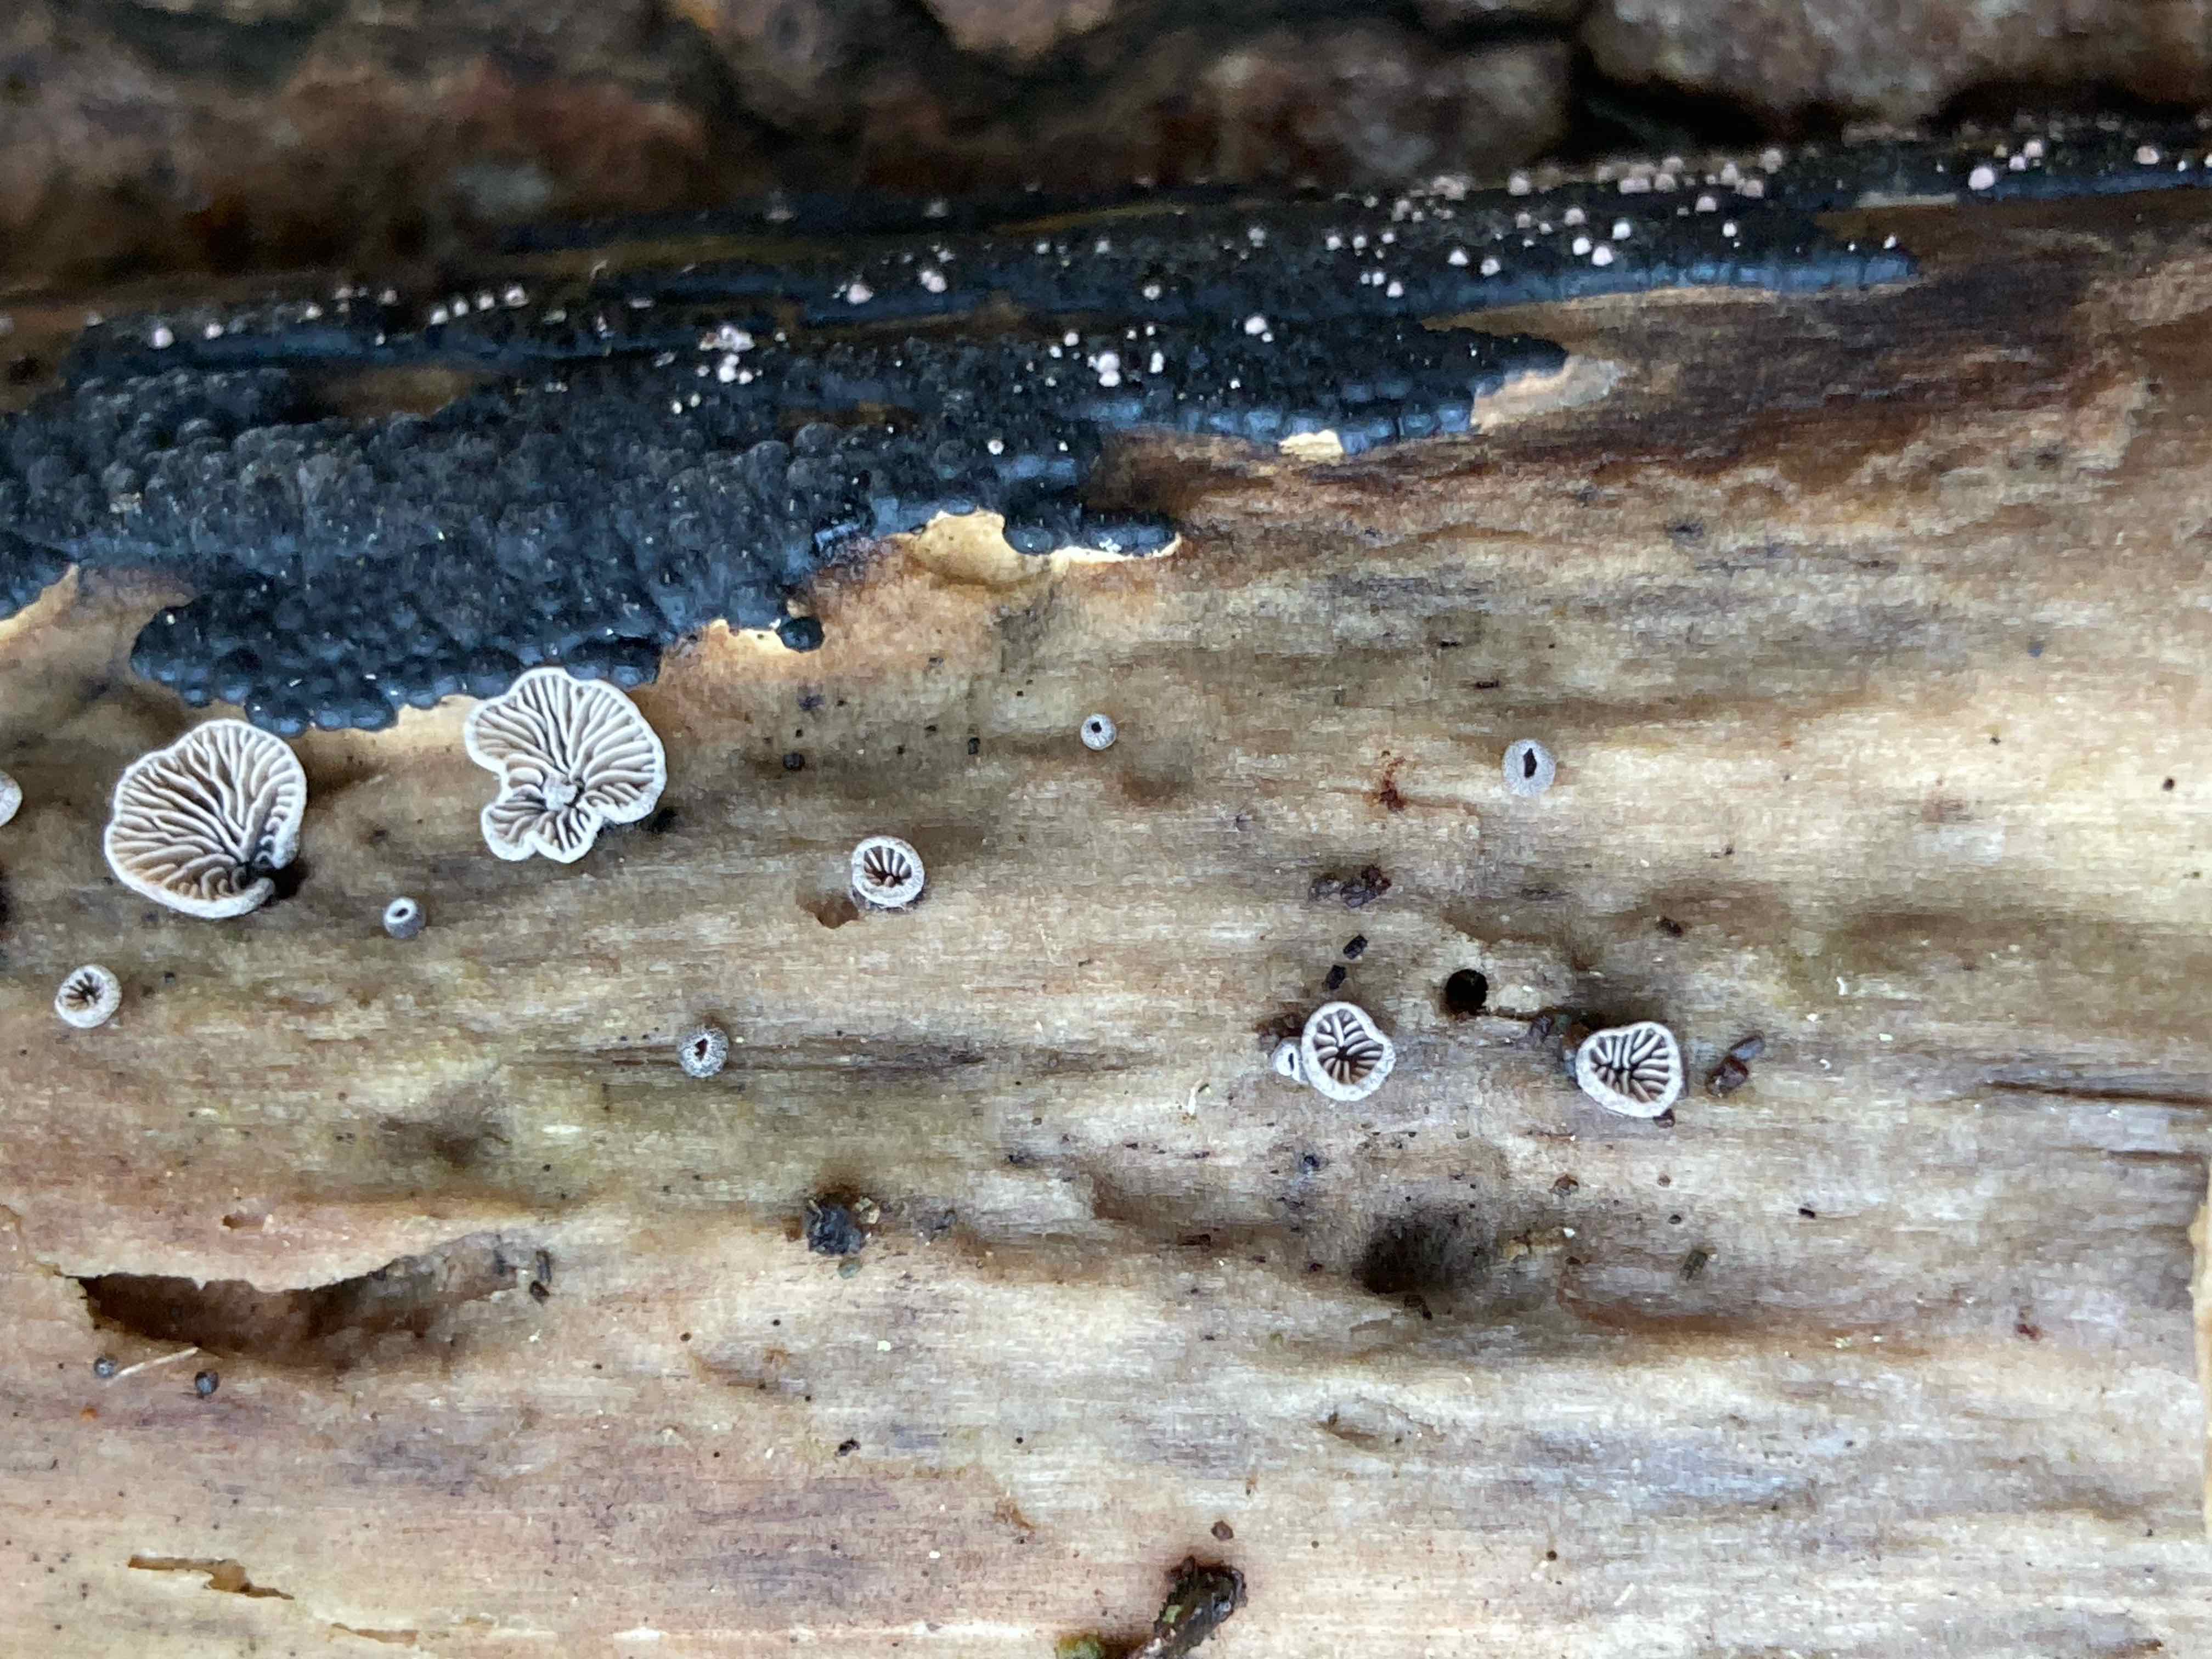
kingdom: Fungi
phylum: Basidiomycota
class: Agaricomycetes
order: Agaricales
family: Pleurotaceae
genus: Resupinatus
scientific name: Resupinatus trichotis
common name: mørkfiltet barkhat
